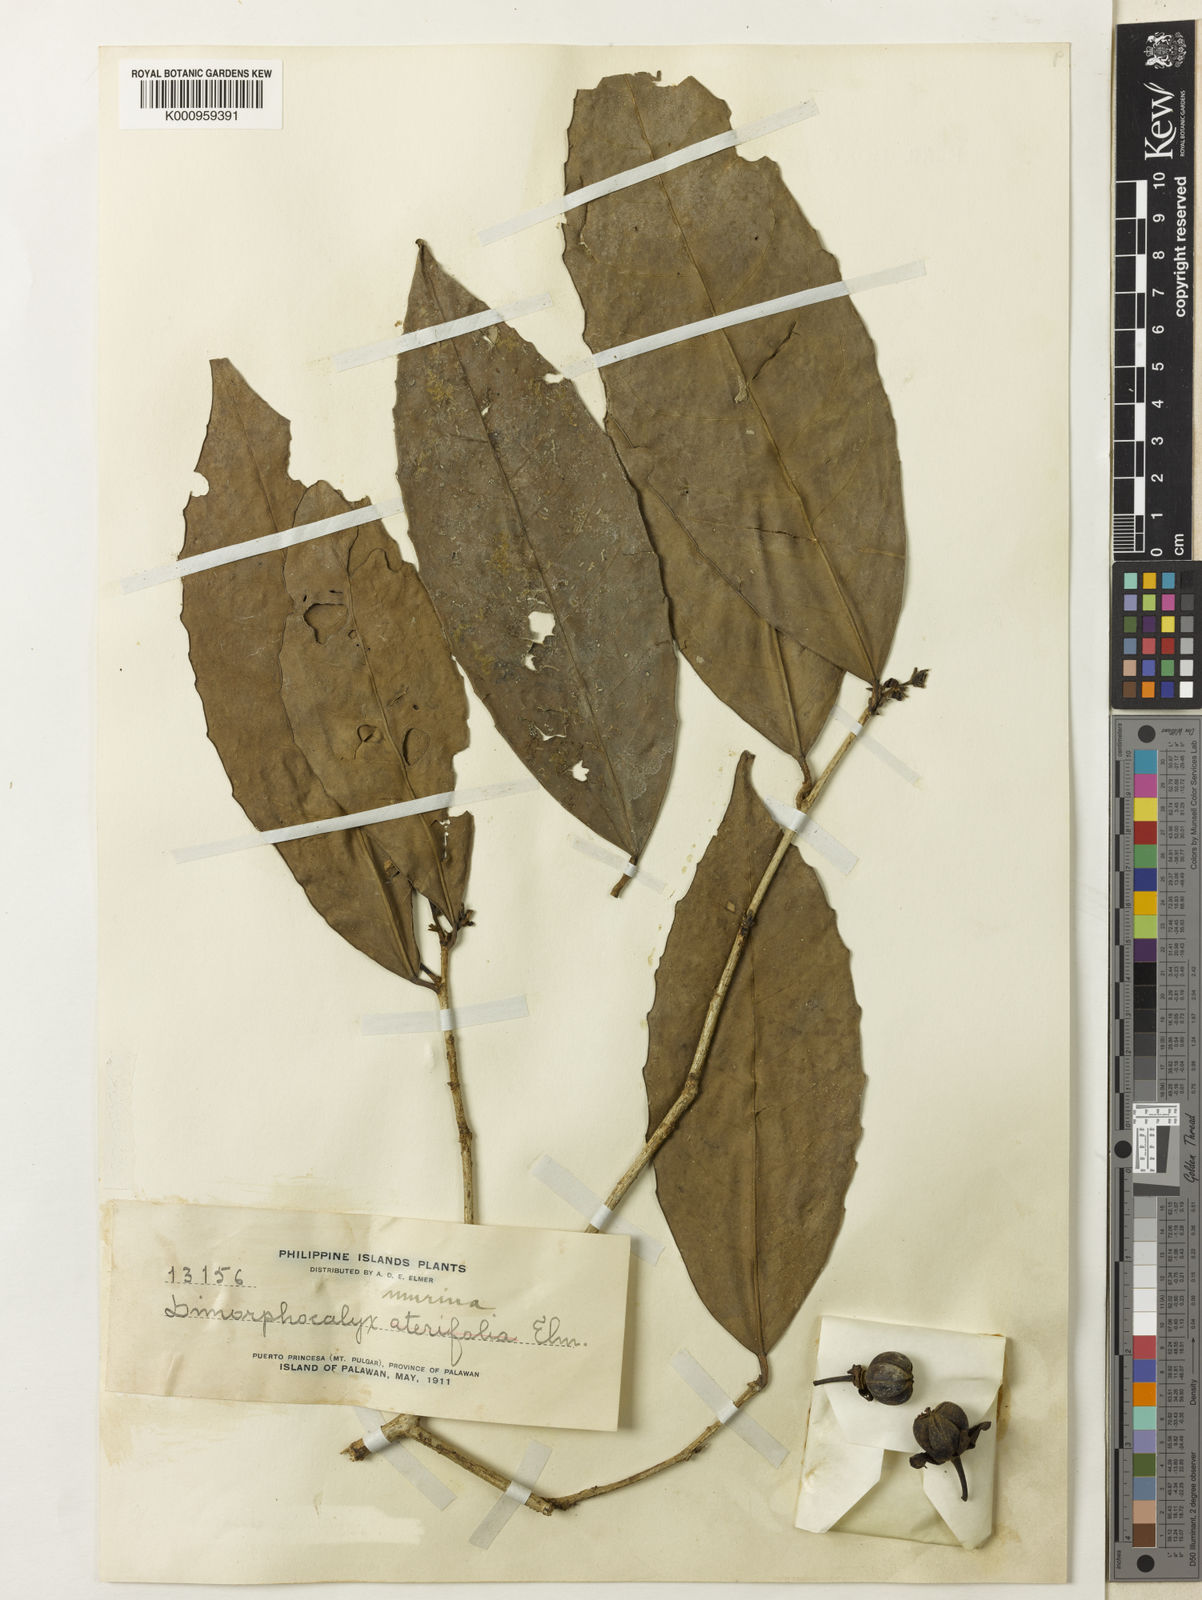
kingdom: Plantae
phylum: Tracheophyta
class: Magnoliopsida
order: Malpighiales
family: Euphorbiaceae
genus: Tritaxis
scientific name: Tritaxis denticulata
